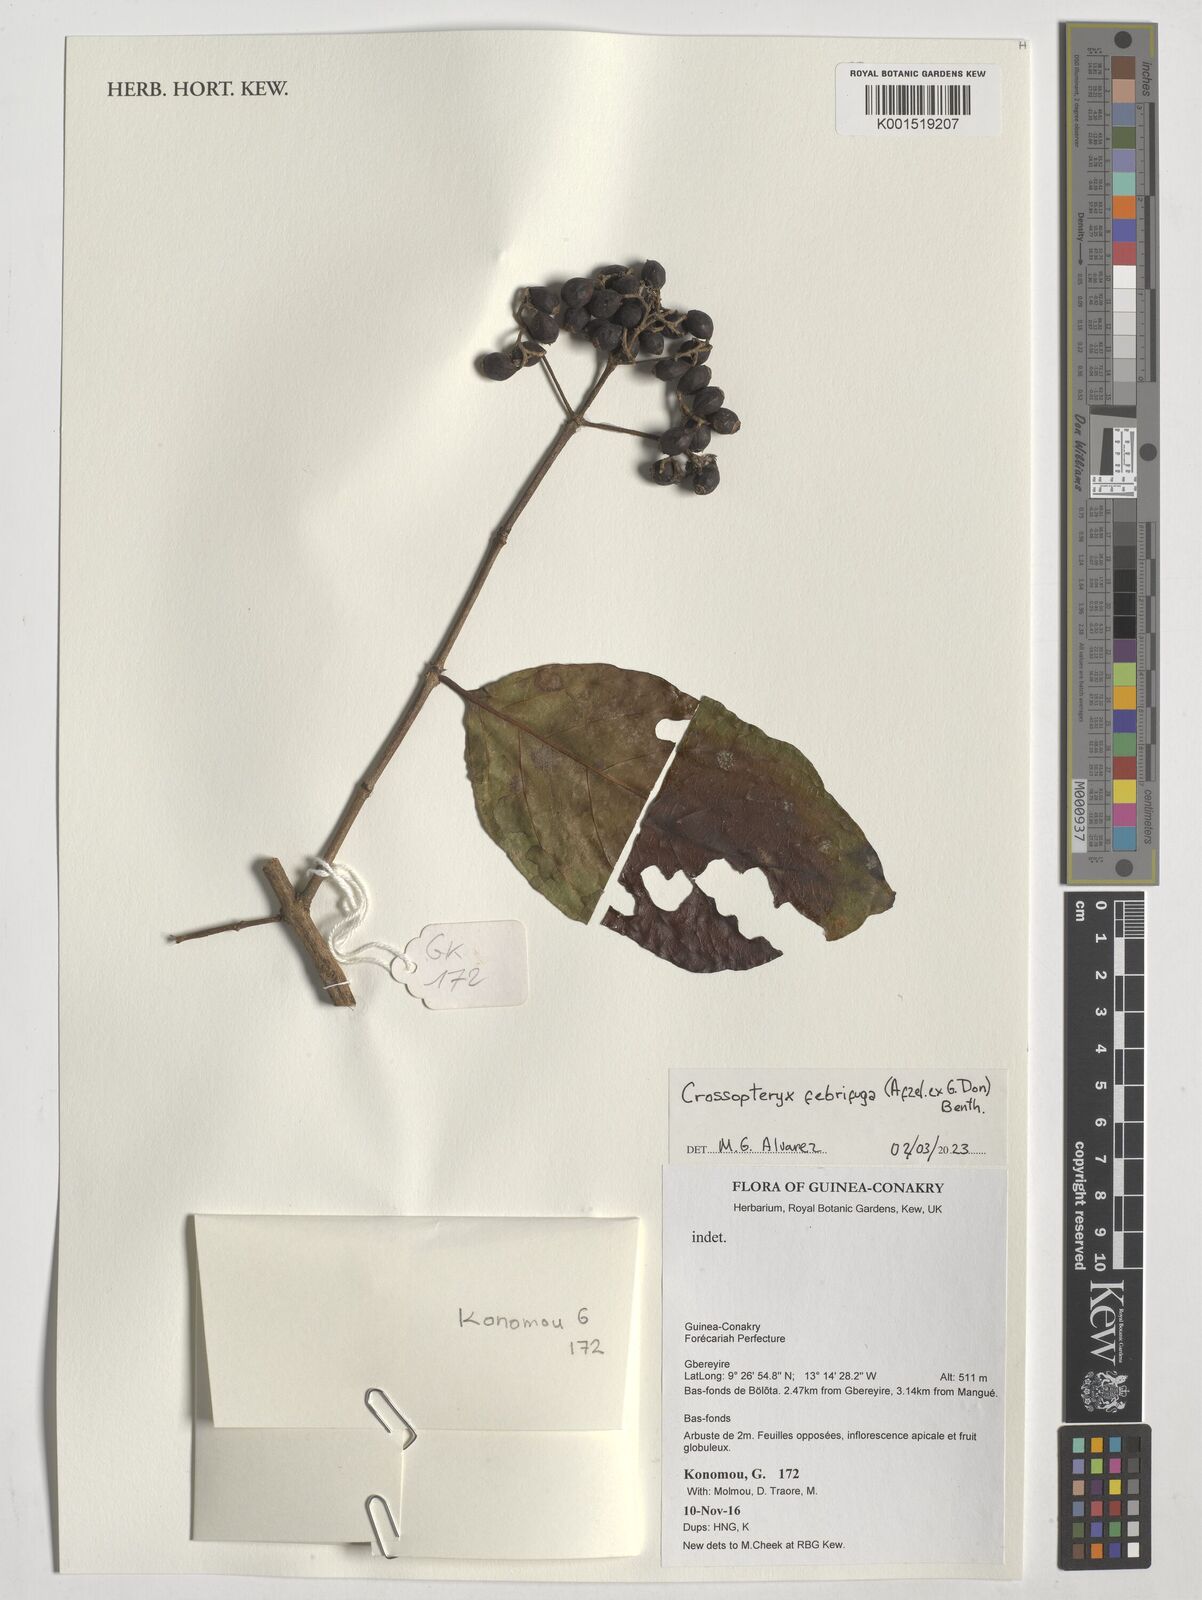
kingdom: Plantae
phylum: Tracheophyta
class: Magnoliopsida
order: Gentianales
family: Rubiaceae
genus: Crossopteryx
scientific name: Crossopteryx febrifuga
